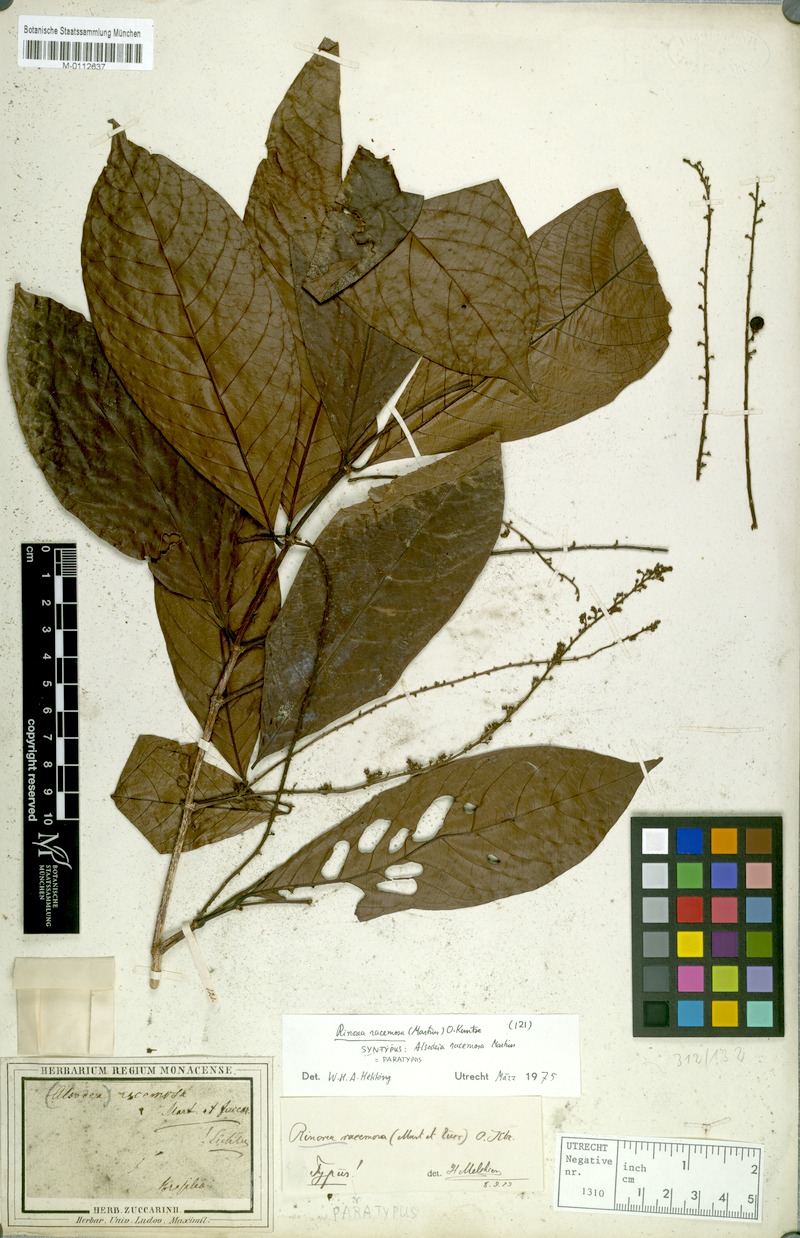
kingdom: Plantae
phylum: Tracheophyta
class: Magnoliopsida
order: Malpighiales
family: Violaceae
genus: Rinorea
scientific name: Rinorea racemosa
